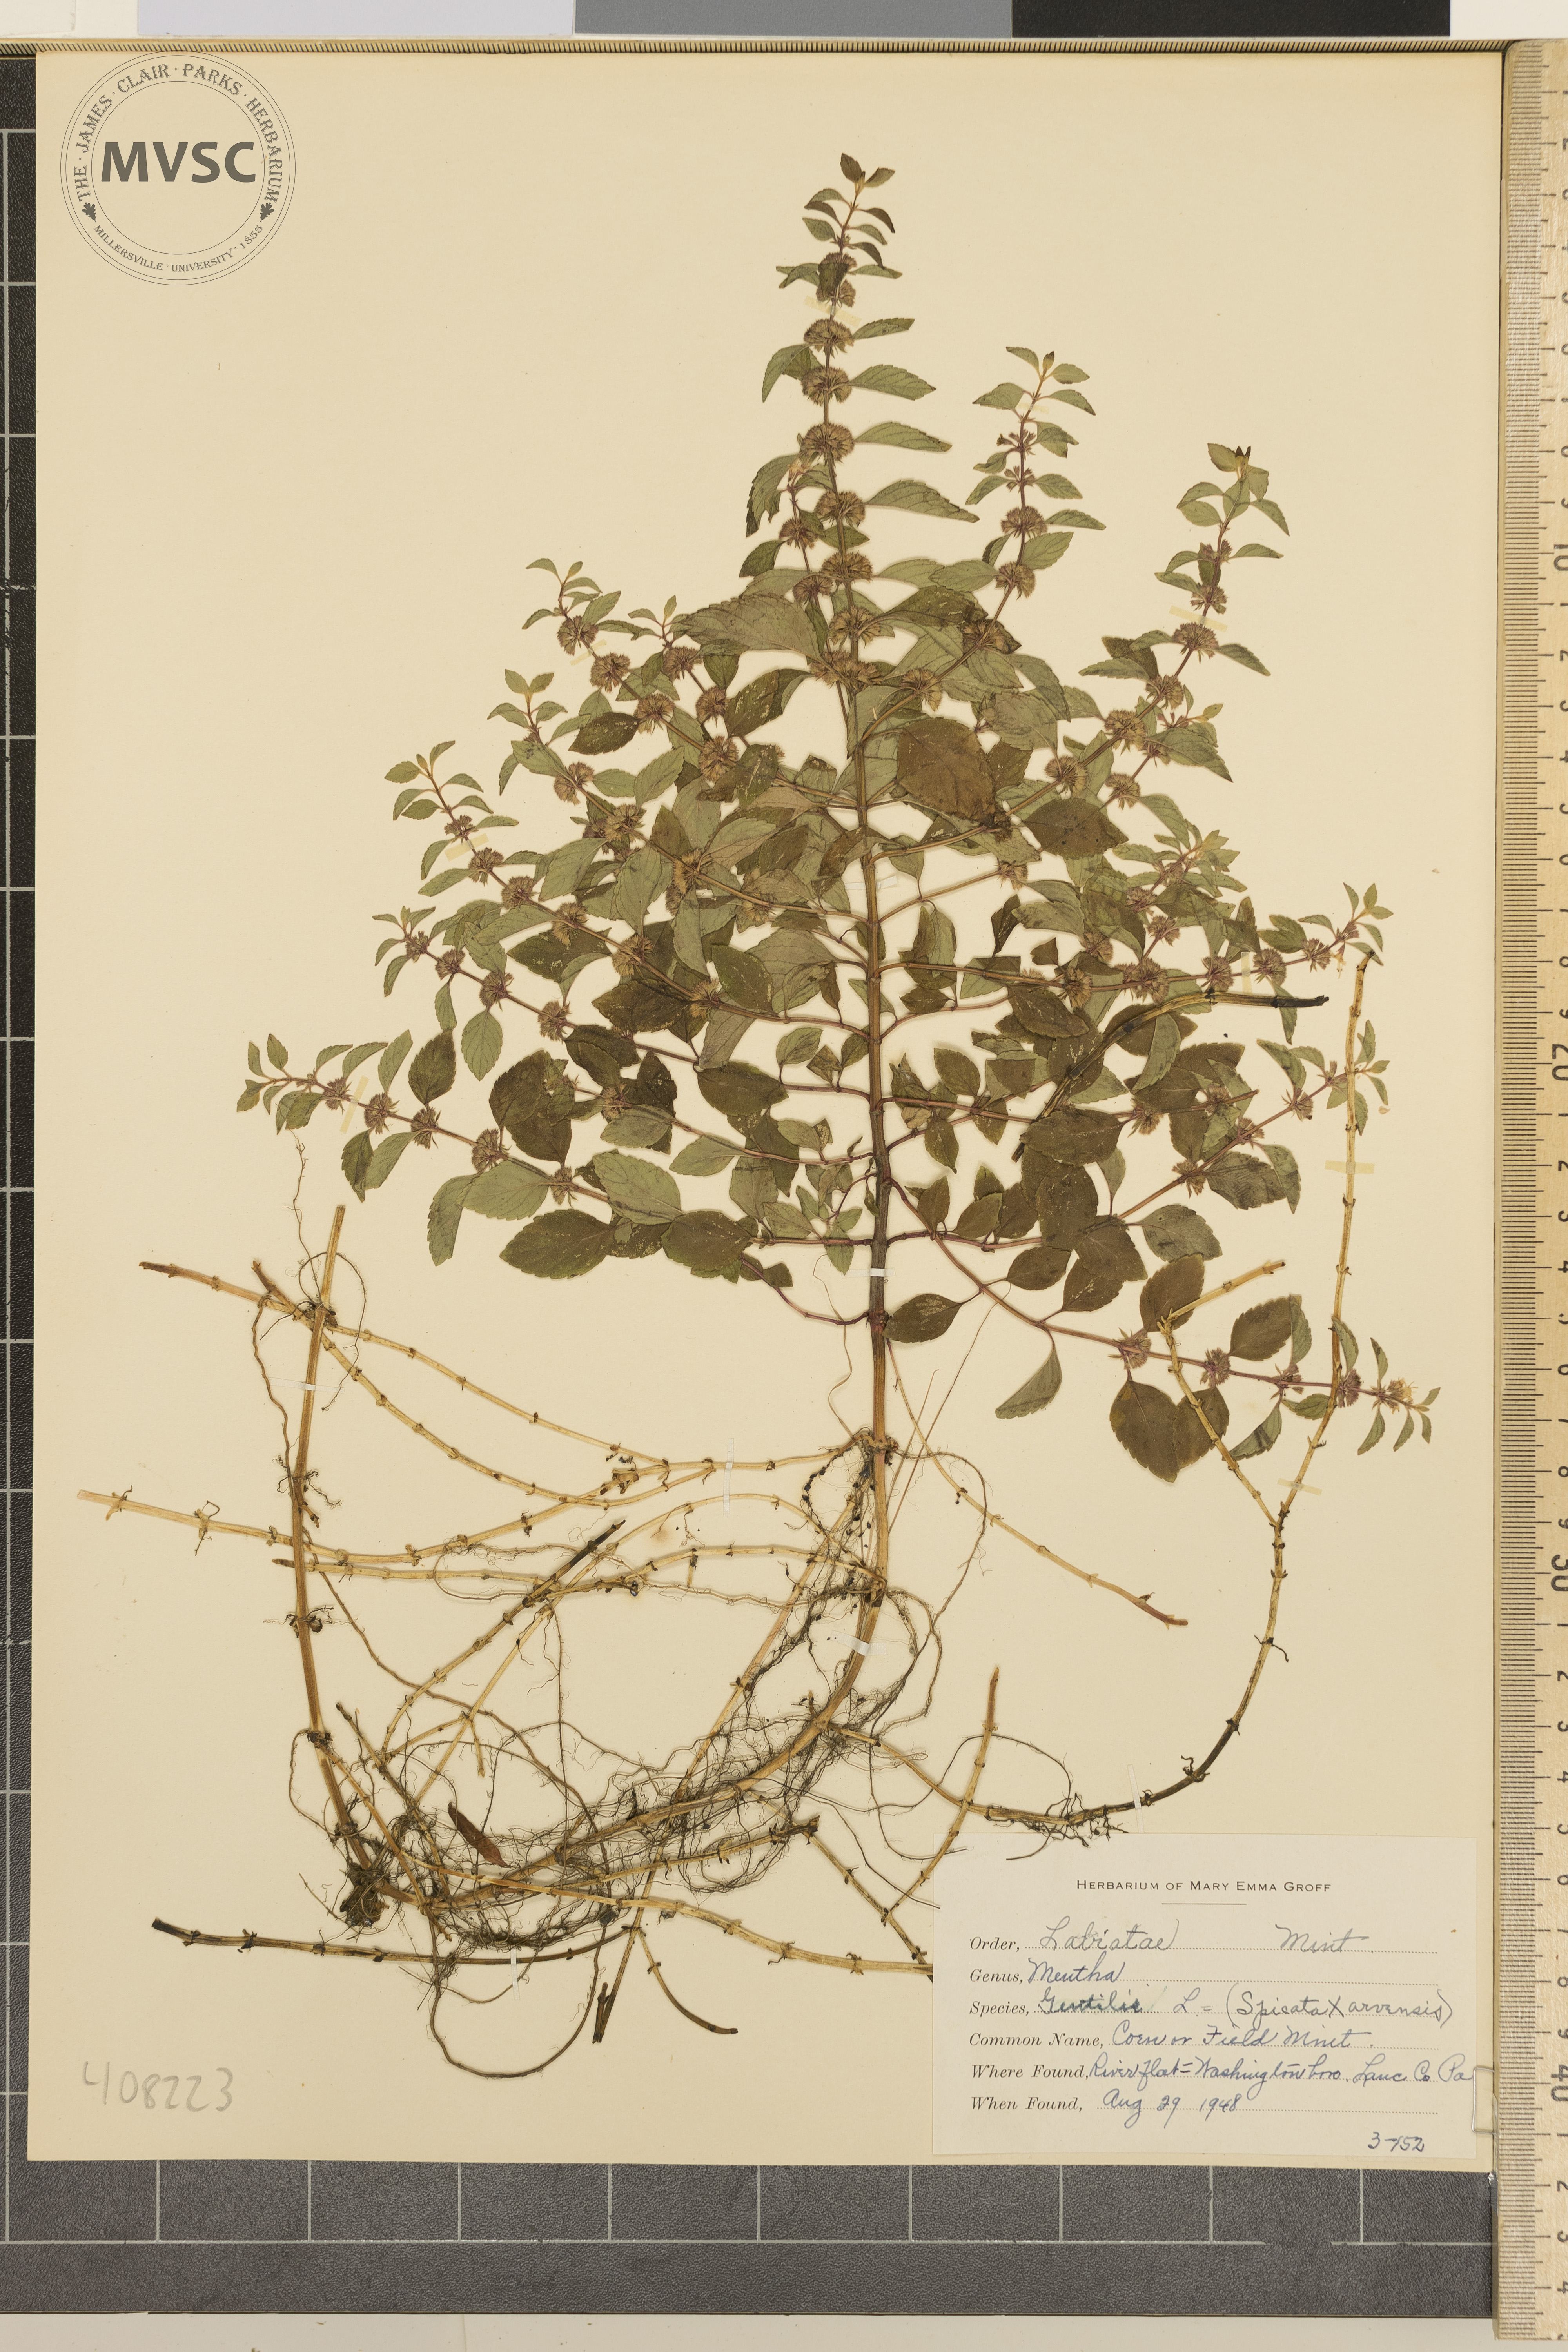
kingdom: Plantae
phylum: Tracheophyta
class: Magnoliopsida
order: Lamiales
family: Lamiaceae
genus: Mentha
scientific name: Mentha gentilis
